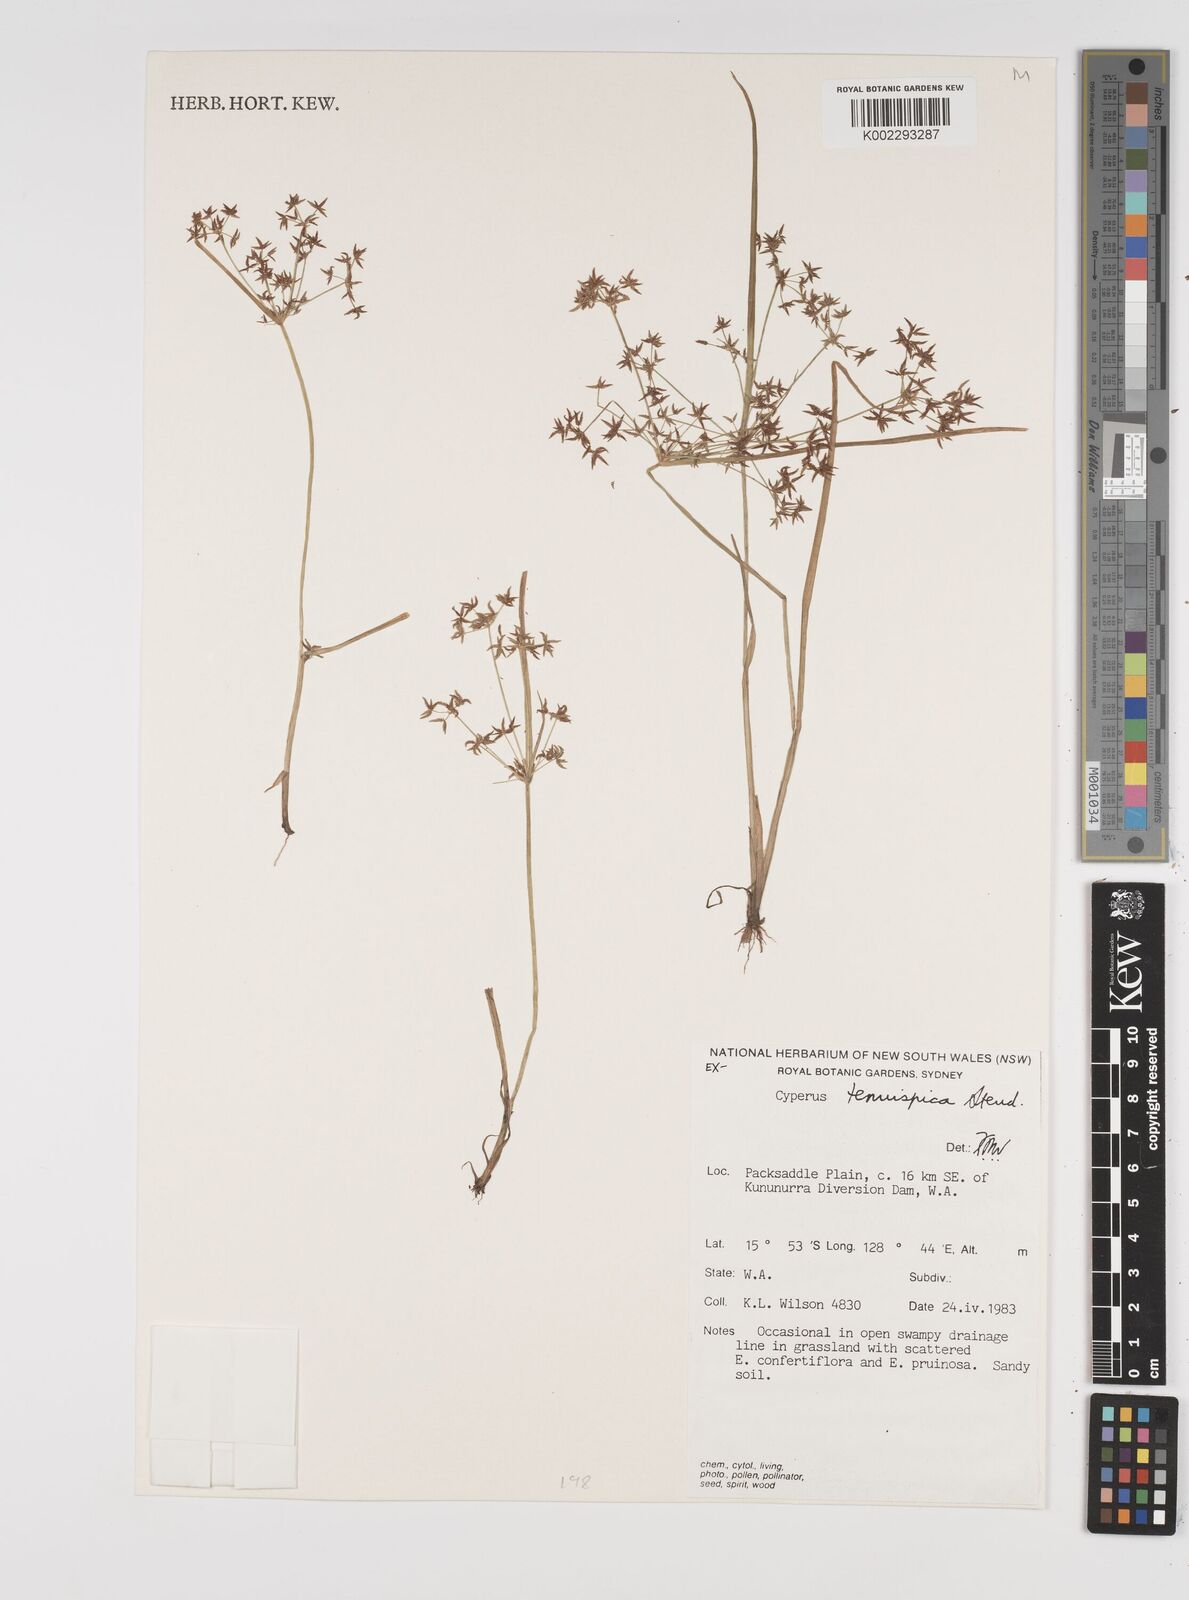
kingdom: Plantae
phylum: Tracheophyta
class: Liliopsida
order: Poales
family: Cyperaceae
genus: Cyperus
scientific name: Cyperus tenuispica
